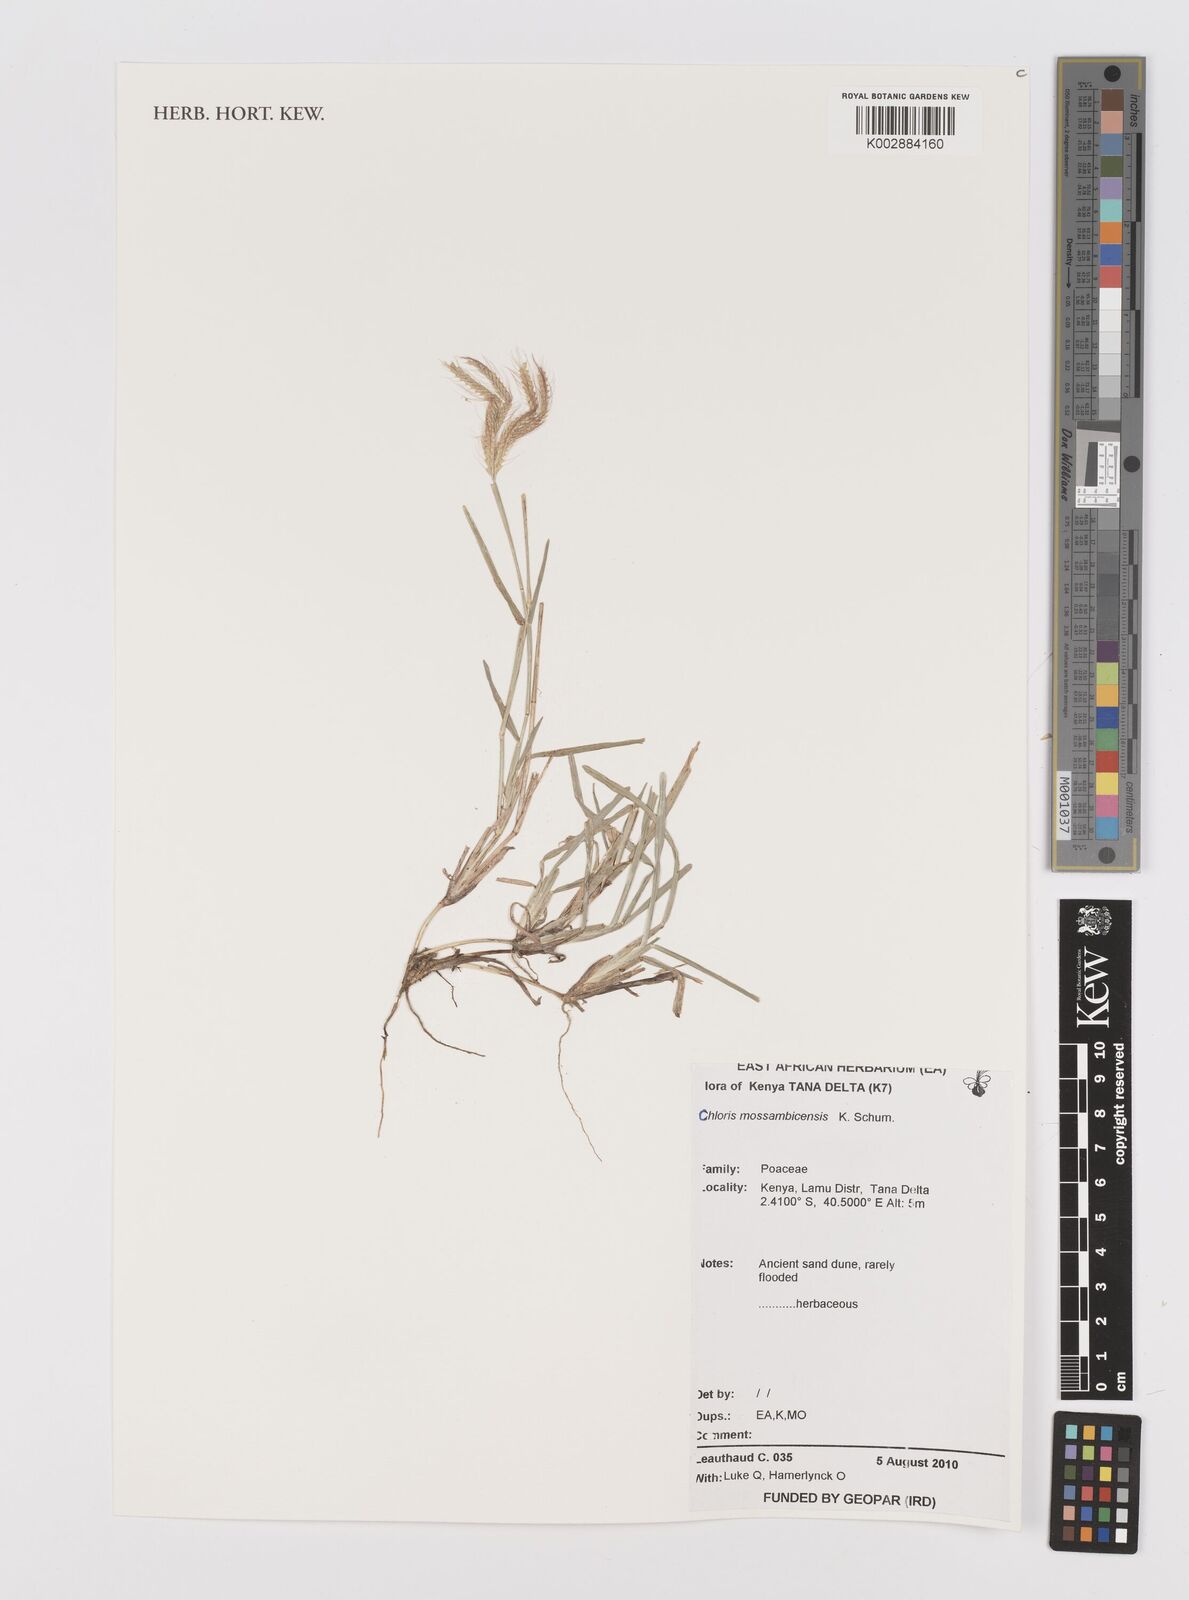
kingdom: Plantae
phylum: Tracheophyta
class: Liliopsida
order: Poales
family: Poaceae
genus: Chloris
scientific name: Chloris mossambicensis
